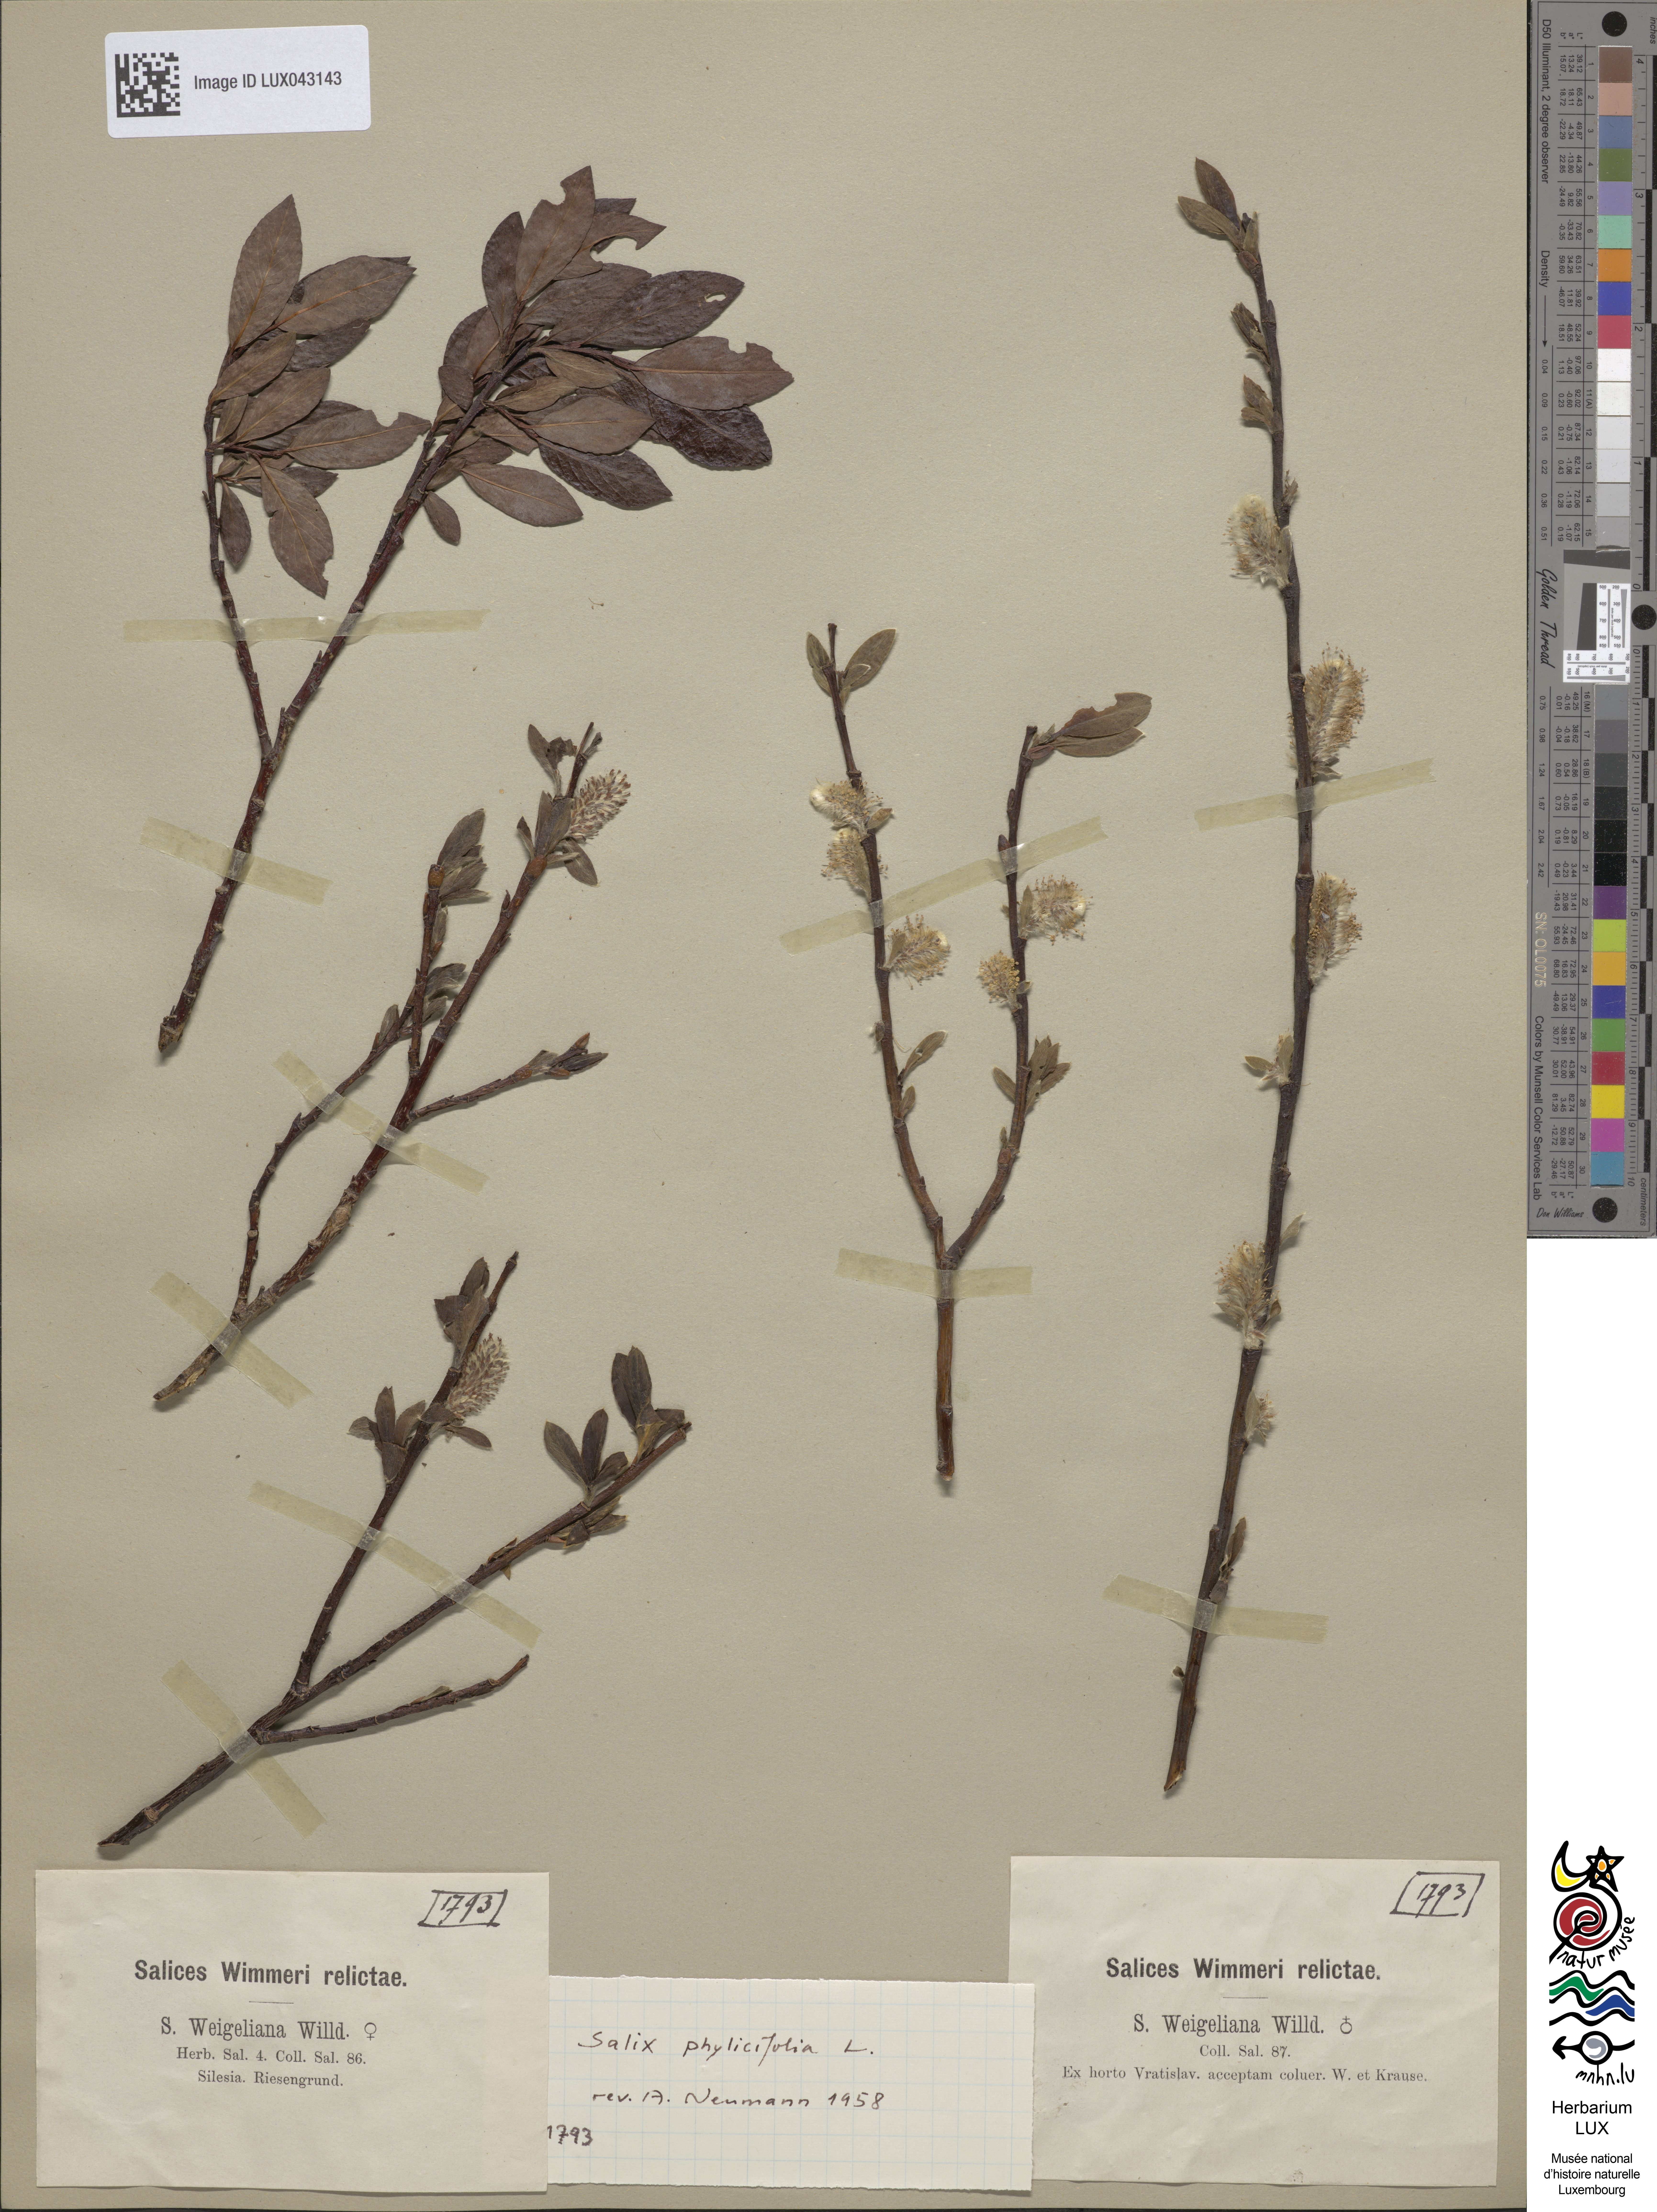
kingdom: Plantae
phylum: Tracheophyta
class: Magnoliopsida
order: Malpighiales
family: Salicaceae
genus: Salix
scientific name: Salix bicolor
